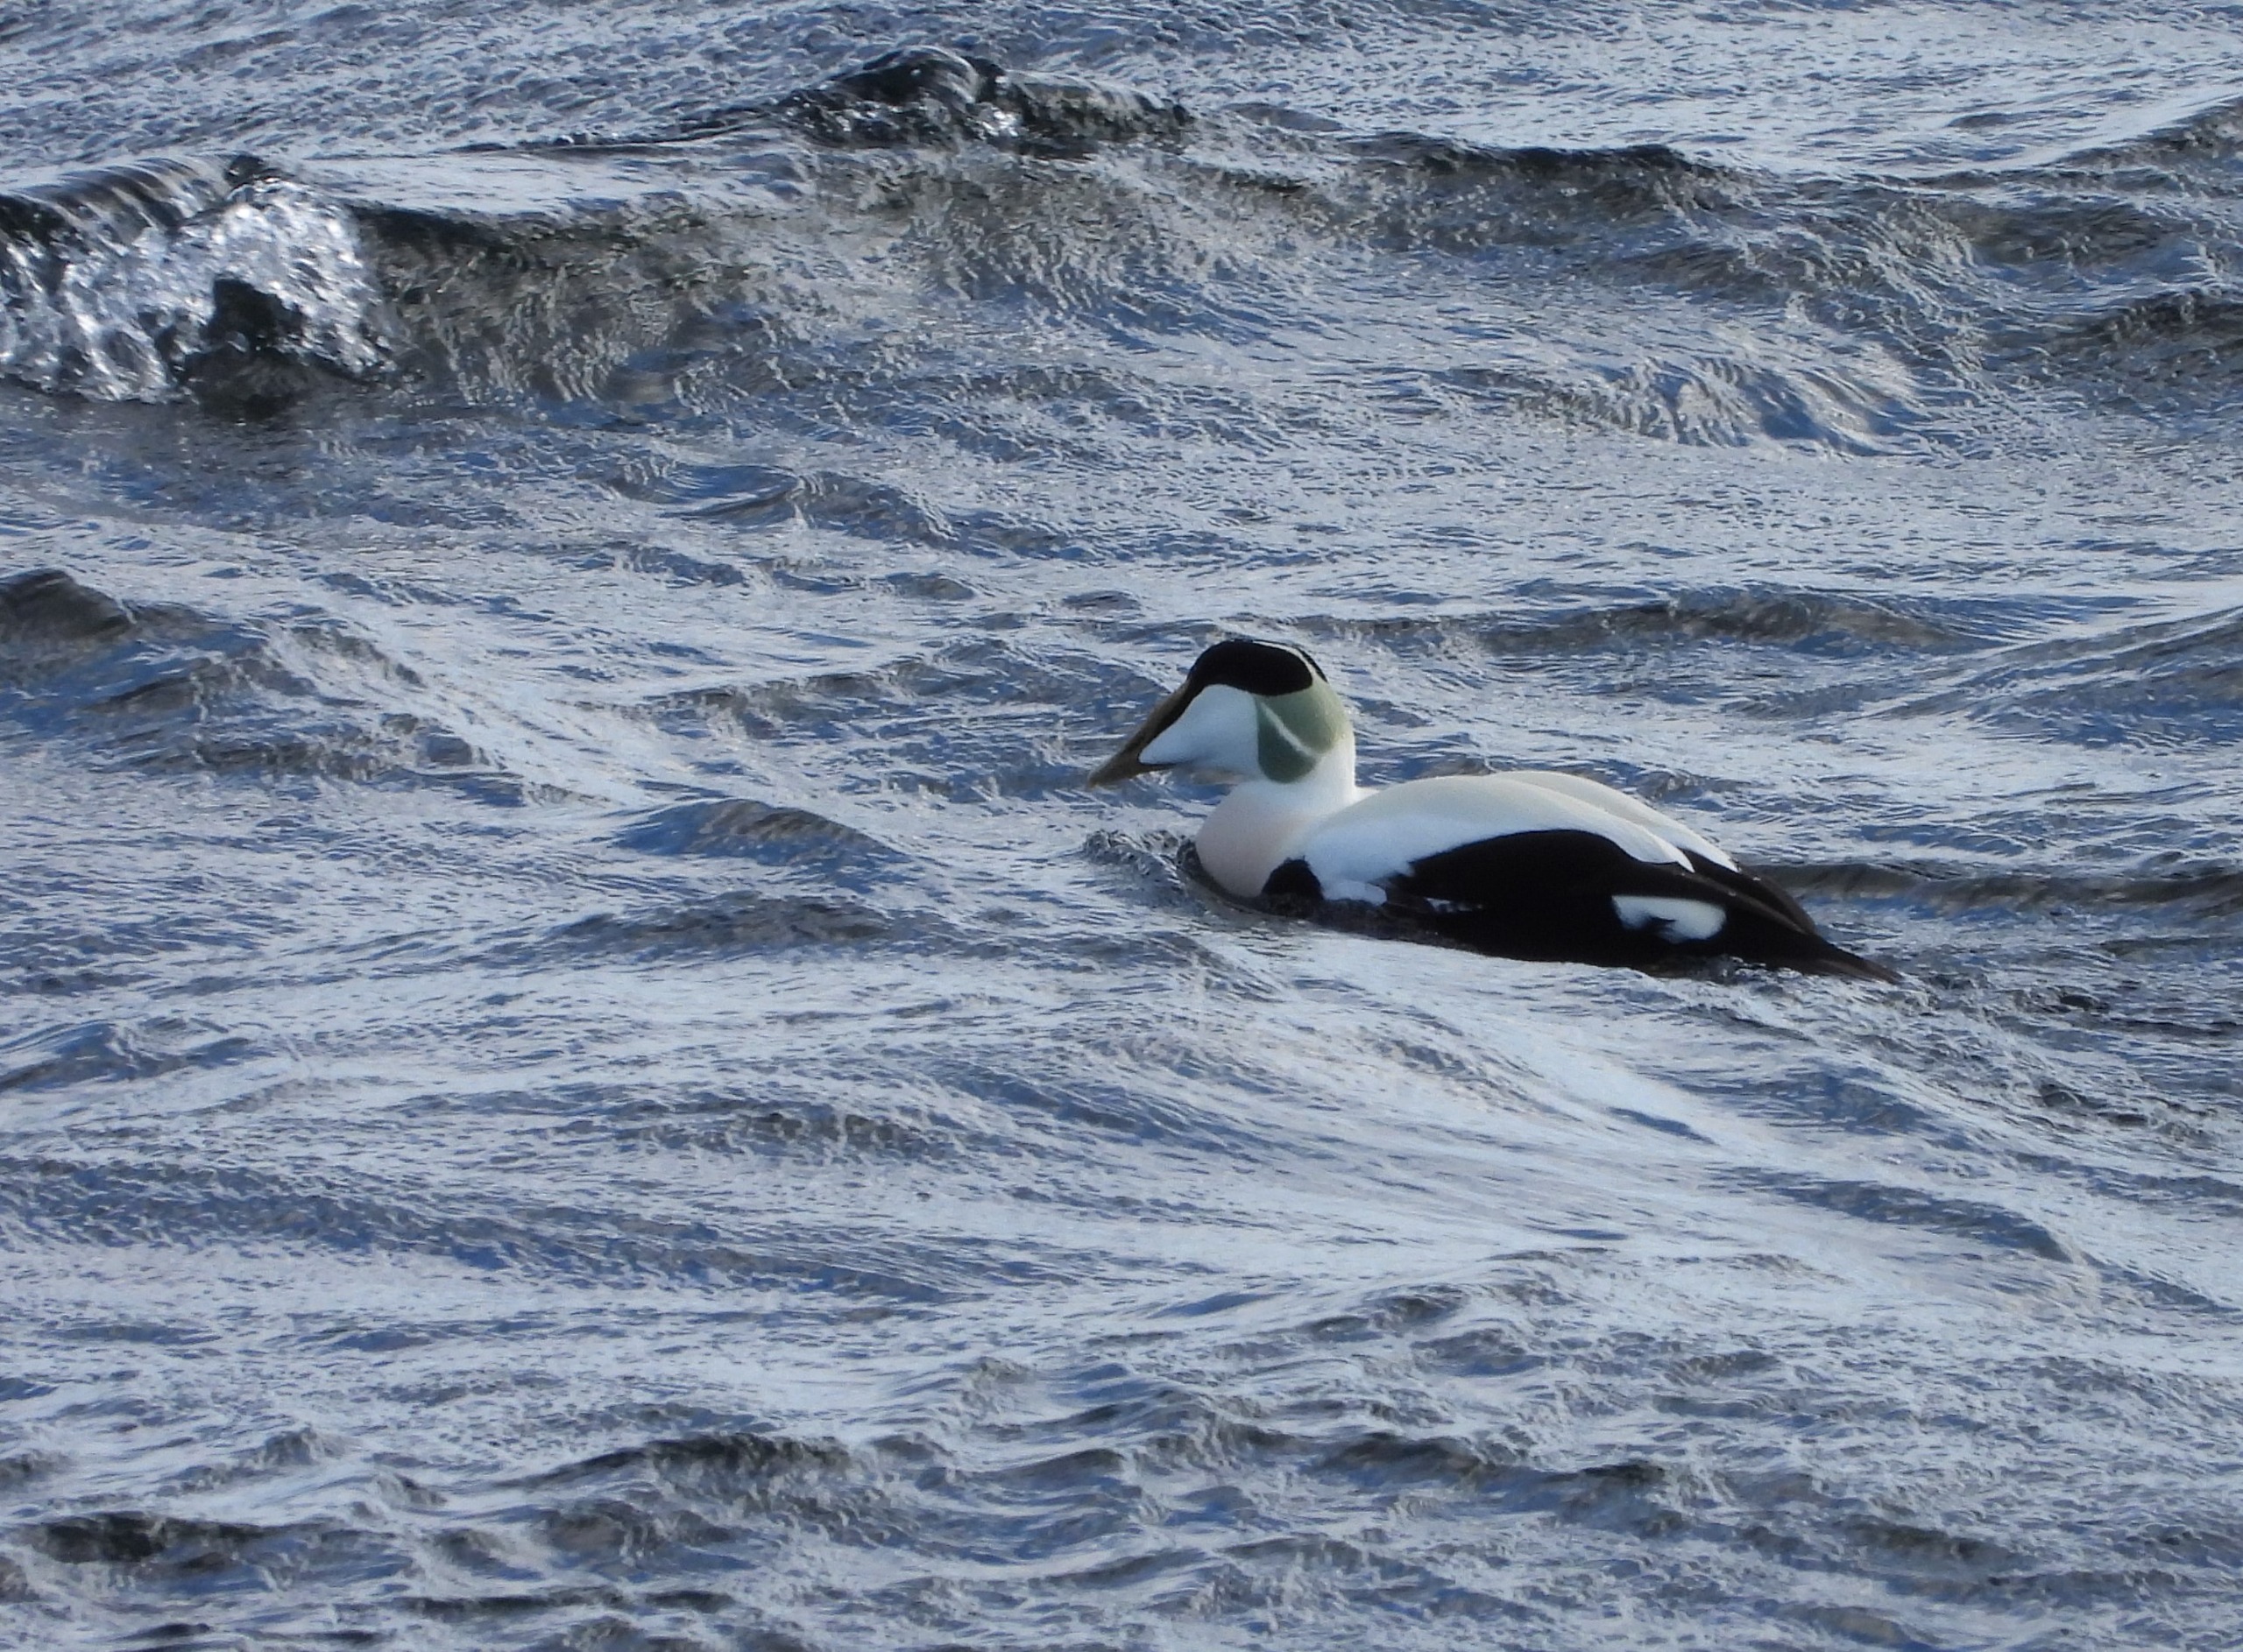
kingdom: Animalia
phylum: Chordata
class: Aves
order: Anseriformes
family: Anatidae
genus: Somateria
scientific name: Somateria mollissima
